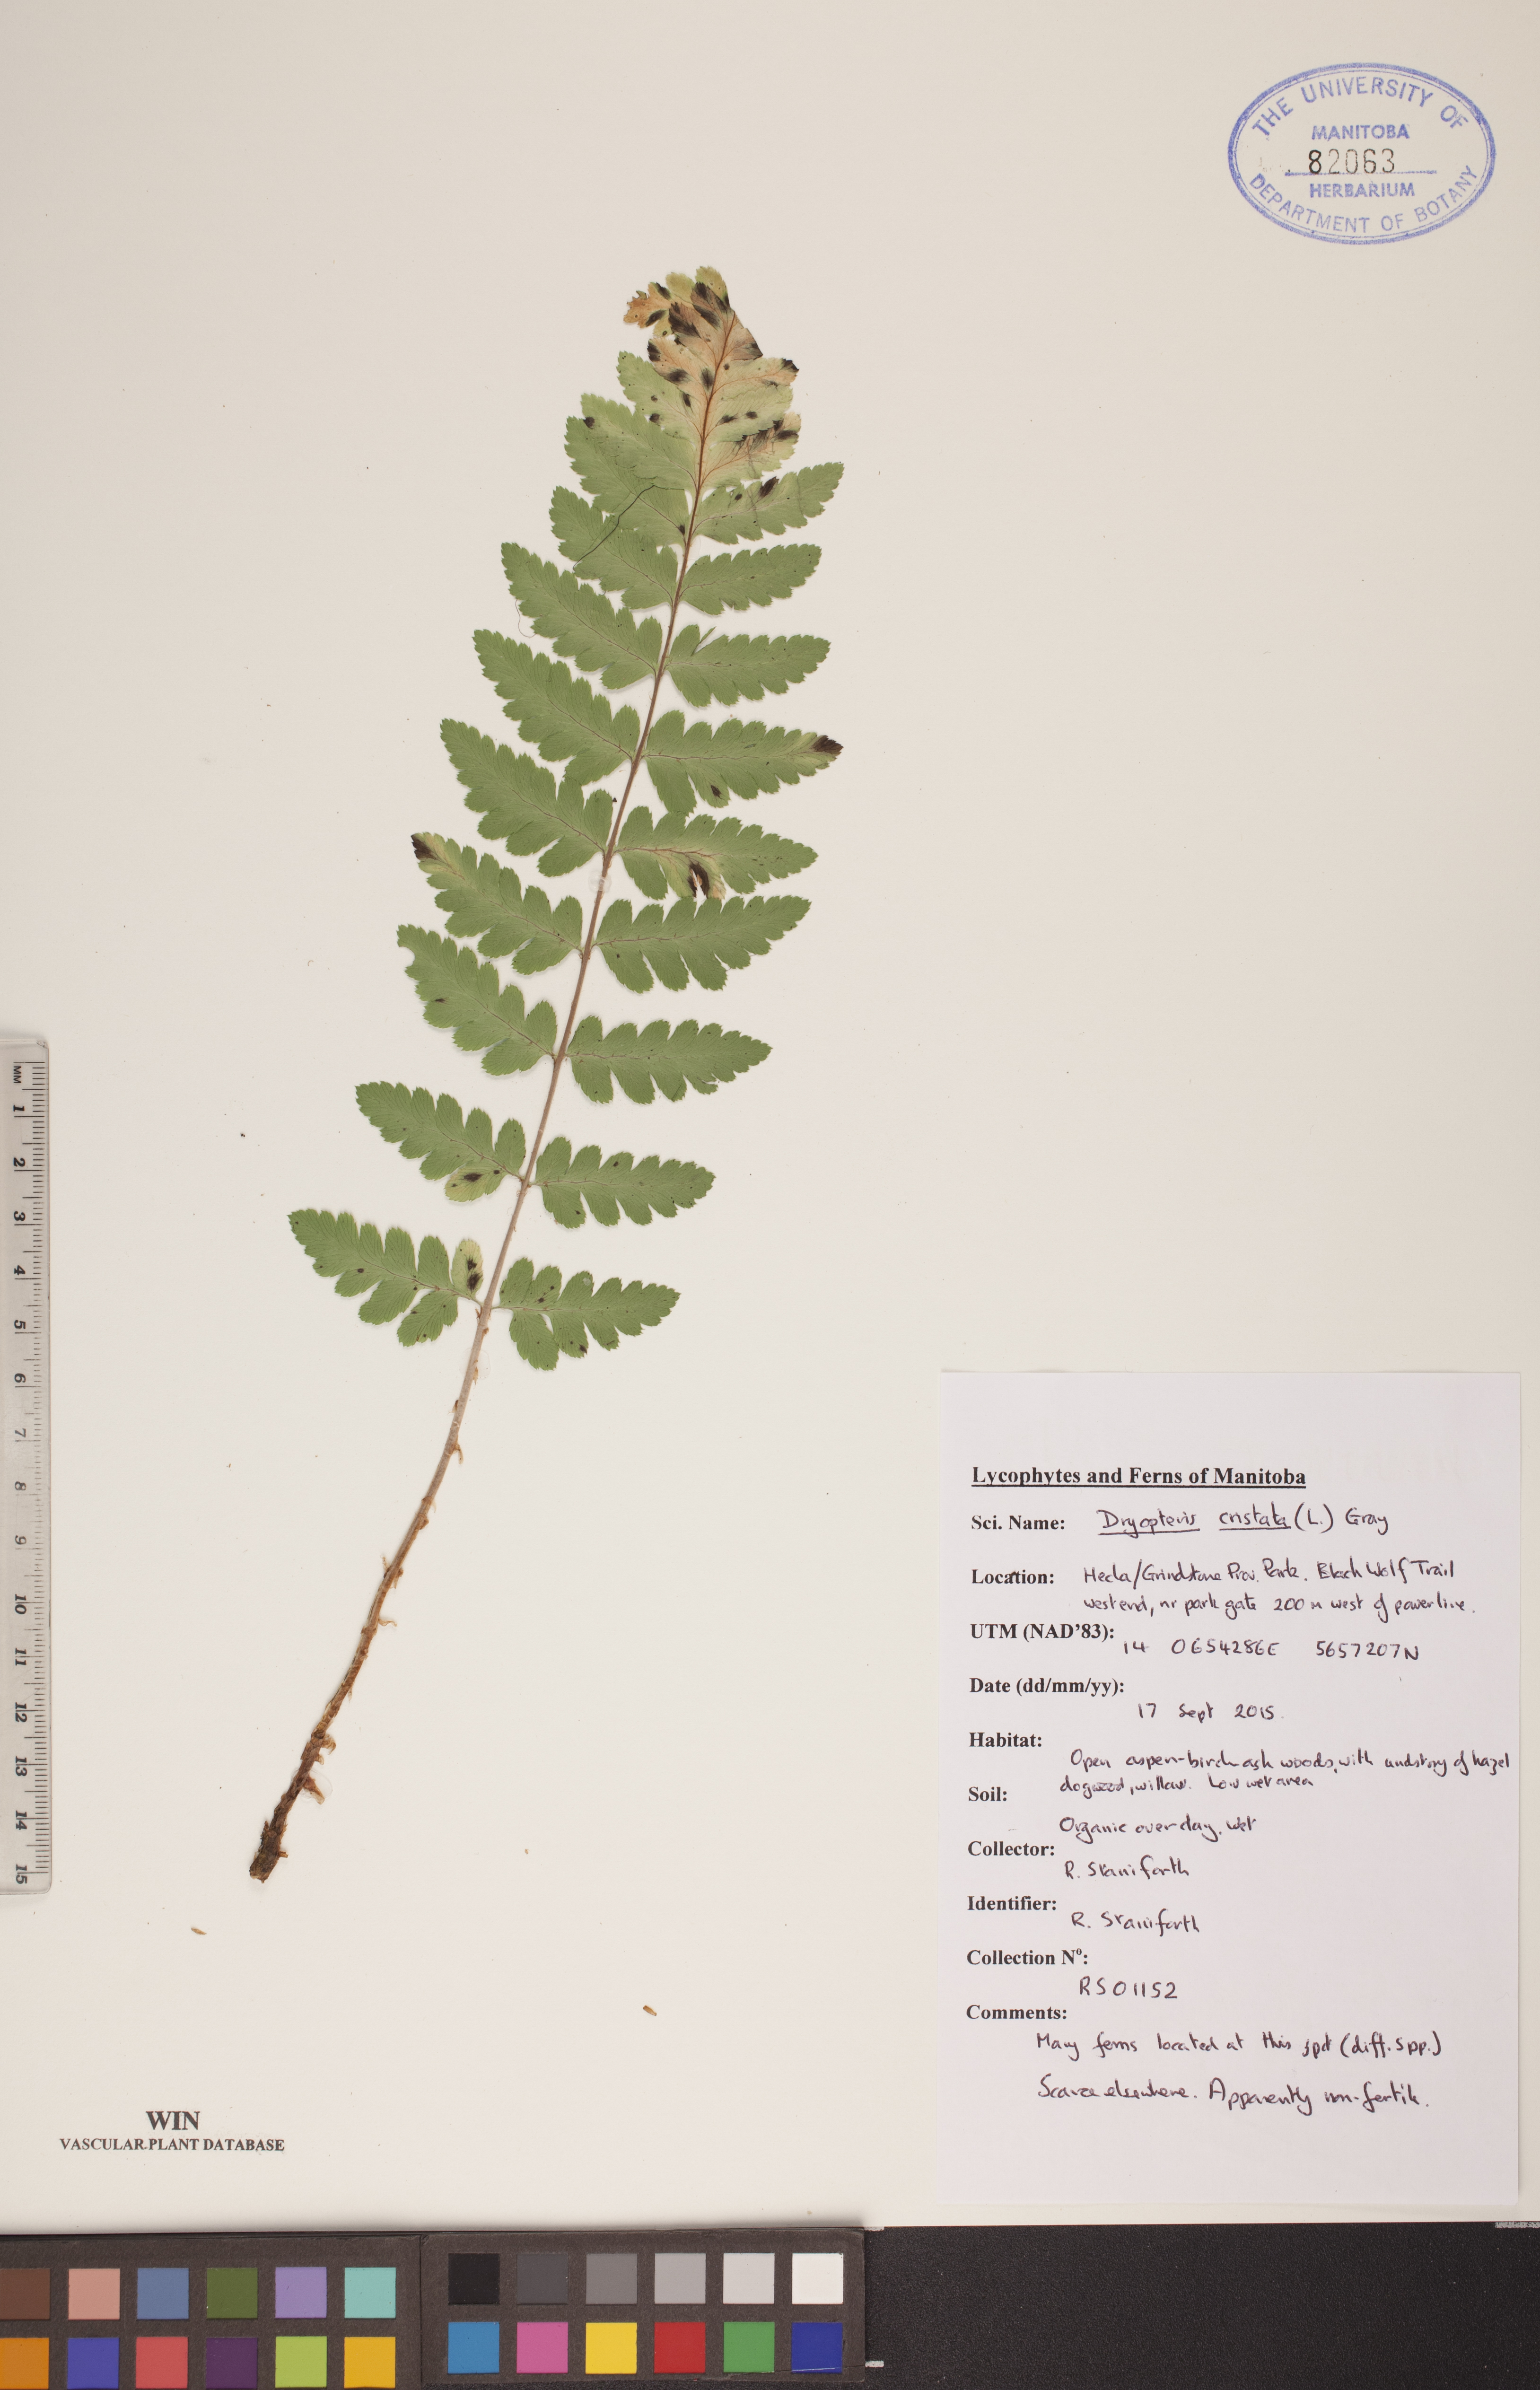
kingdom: Plantae
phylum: Tracheophyta
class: Polypodiopsida
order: Polypodiales
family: Dryopteridaceae
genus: Dryopteris
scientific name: Dryopteris cristata
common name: Crested wood fern
